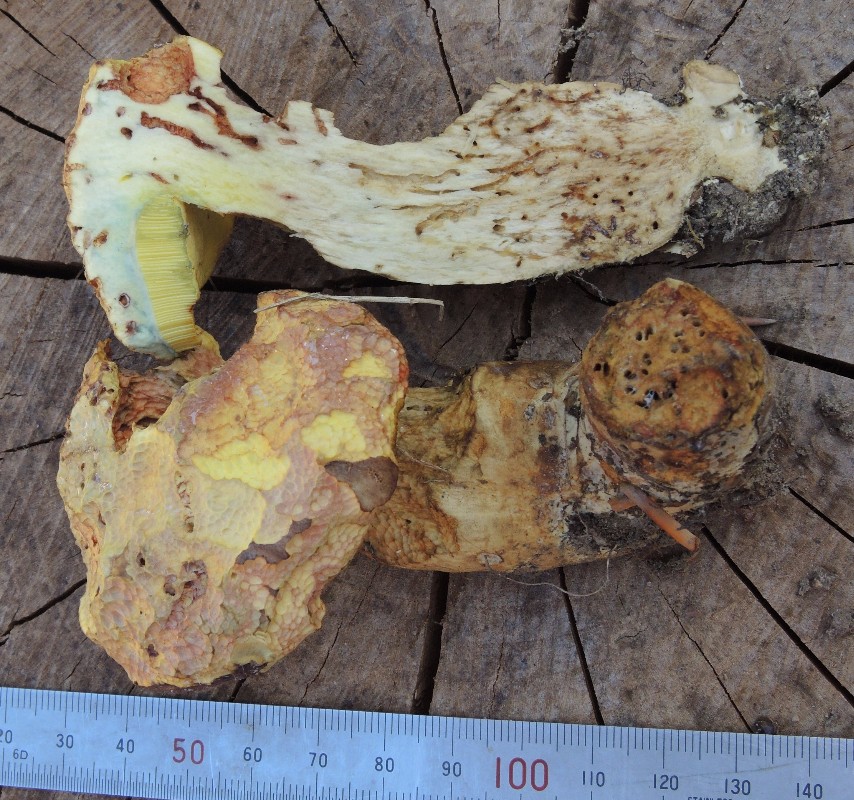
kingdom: Fungi
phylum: Basidiomycota
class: Agaricomycetes
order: Boletales
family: Boletaceae
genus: Butyriboletus
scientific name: Butyriboletus appendiculatus
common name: tenstokket rørhat
